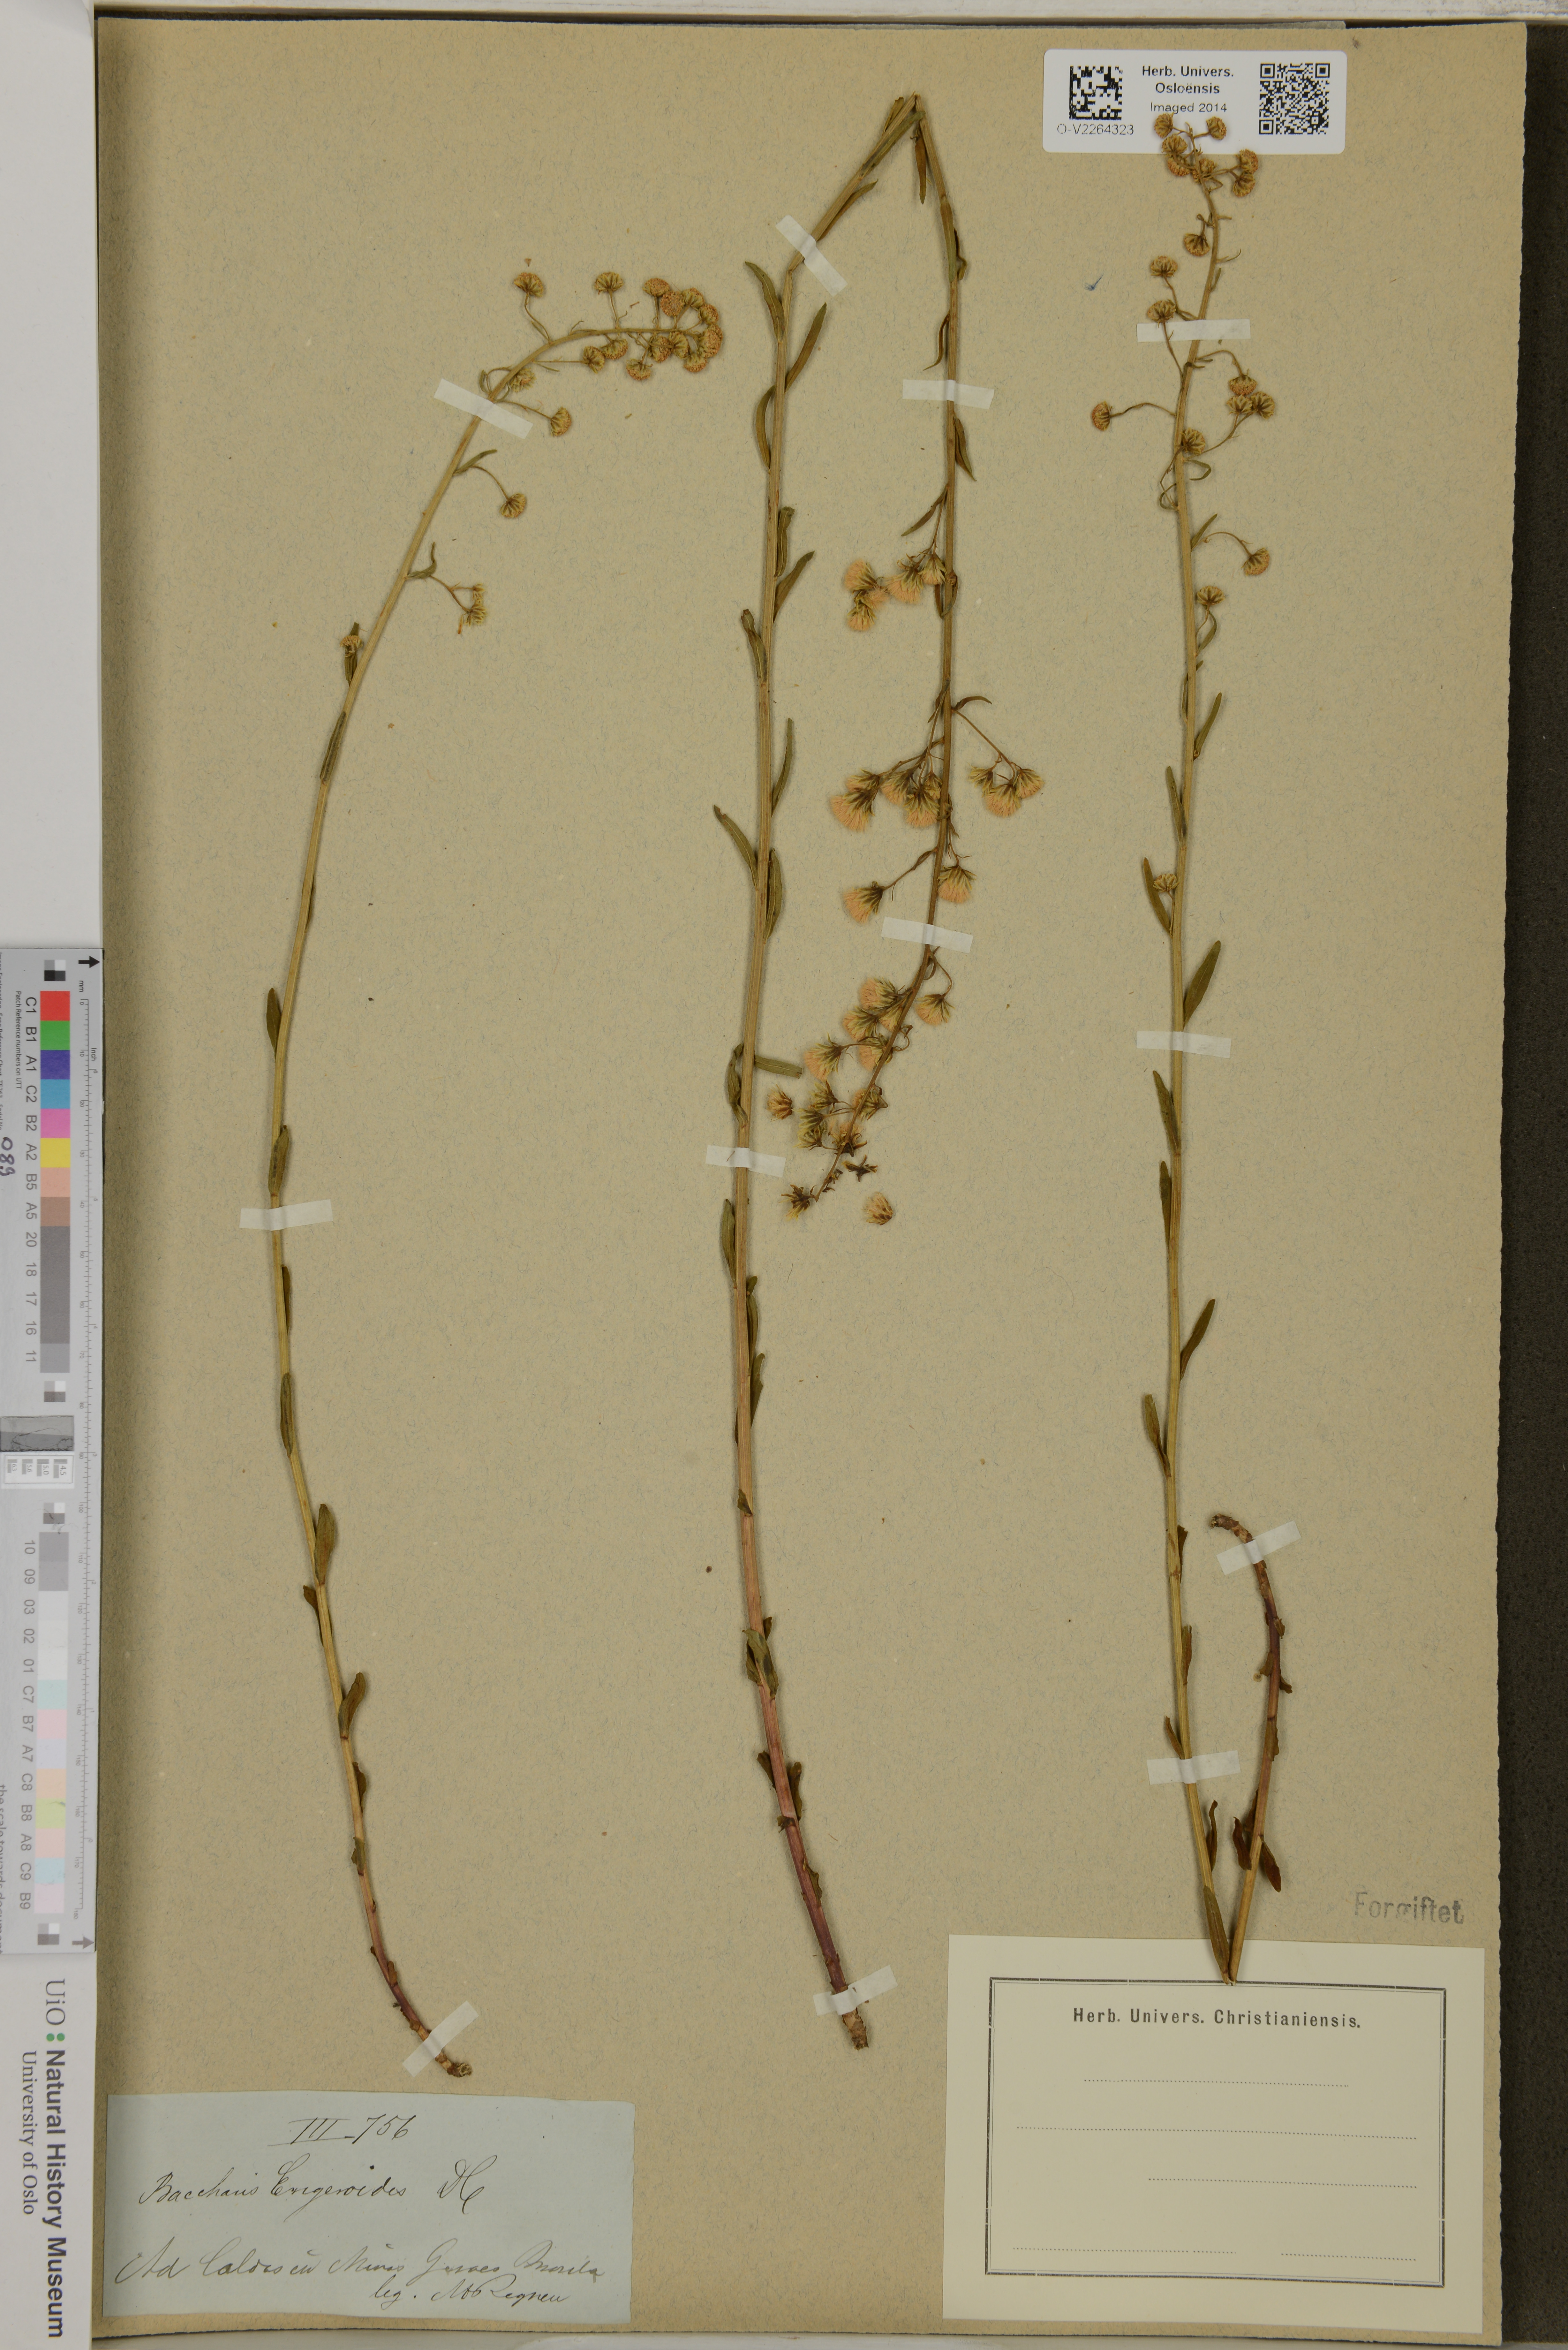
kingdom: Plantae
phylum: Tracheophyta
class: Magnoliopsida
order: Asterales
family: Asteraceae
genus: Baccharis
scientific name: Baccharis erigeroides
